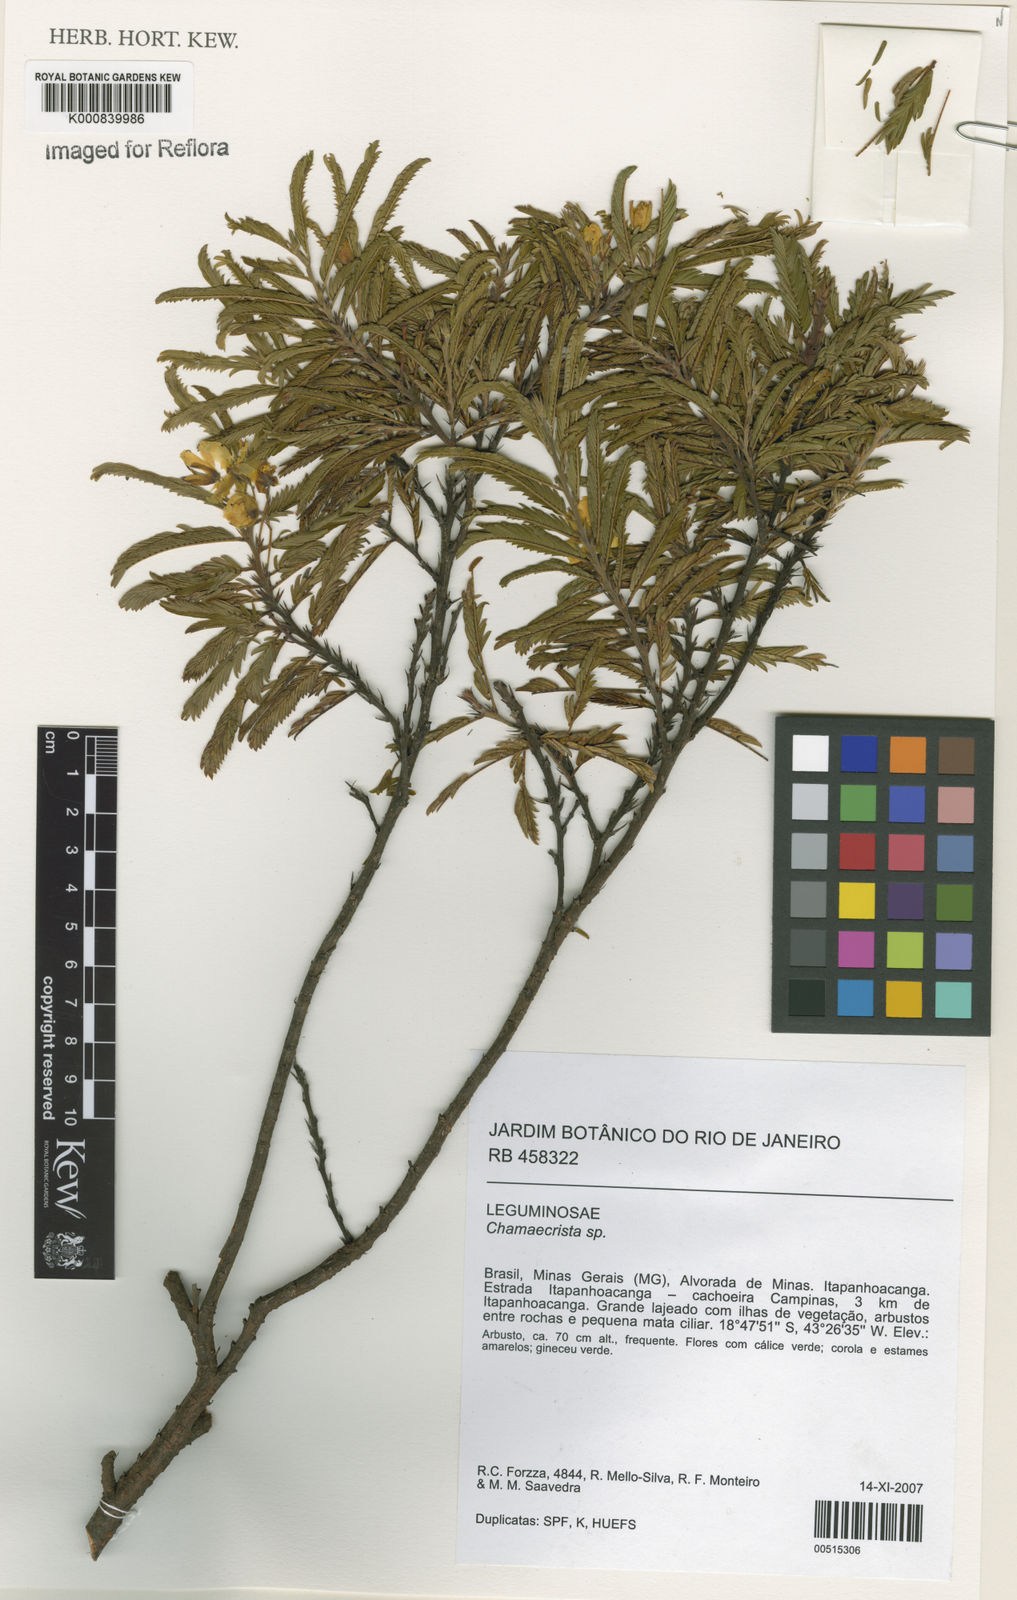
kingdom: Plantae
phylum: Tracheophyta
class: Magnoliopsida
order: Fabales
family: Fabaceae
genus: Chamaecrista
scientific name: Chamaecrista olesiphylla
